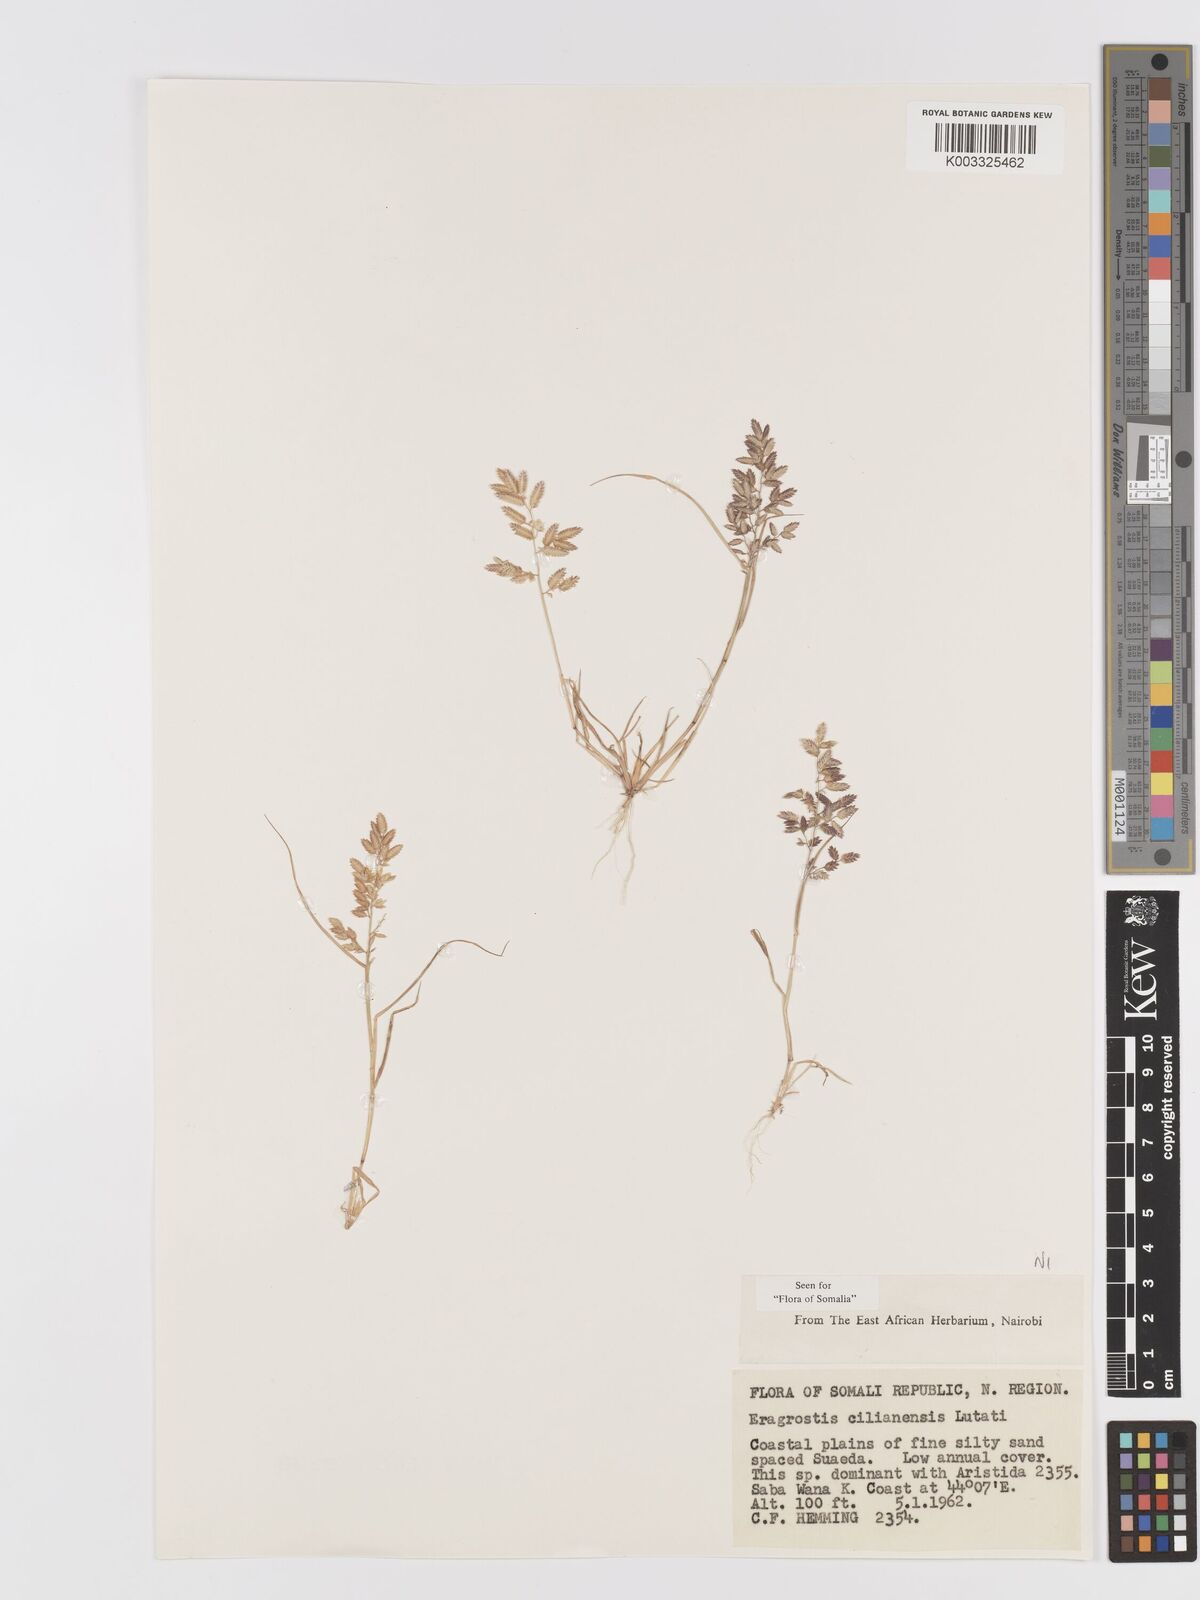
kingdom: Plantae
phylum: Tracheophyta
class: Liliopsida
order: Poales
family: Poaceae
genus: Eragrostis
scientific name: Eragrostis cilianensis
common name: Stinkgrass
